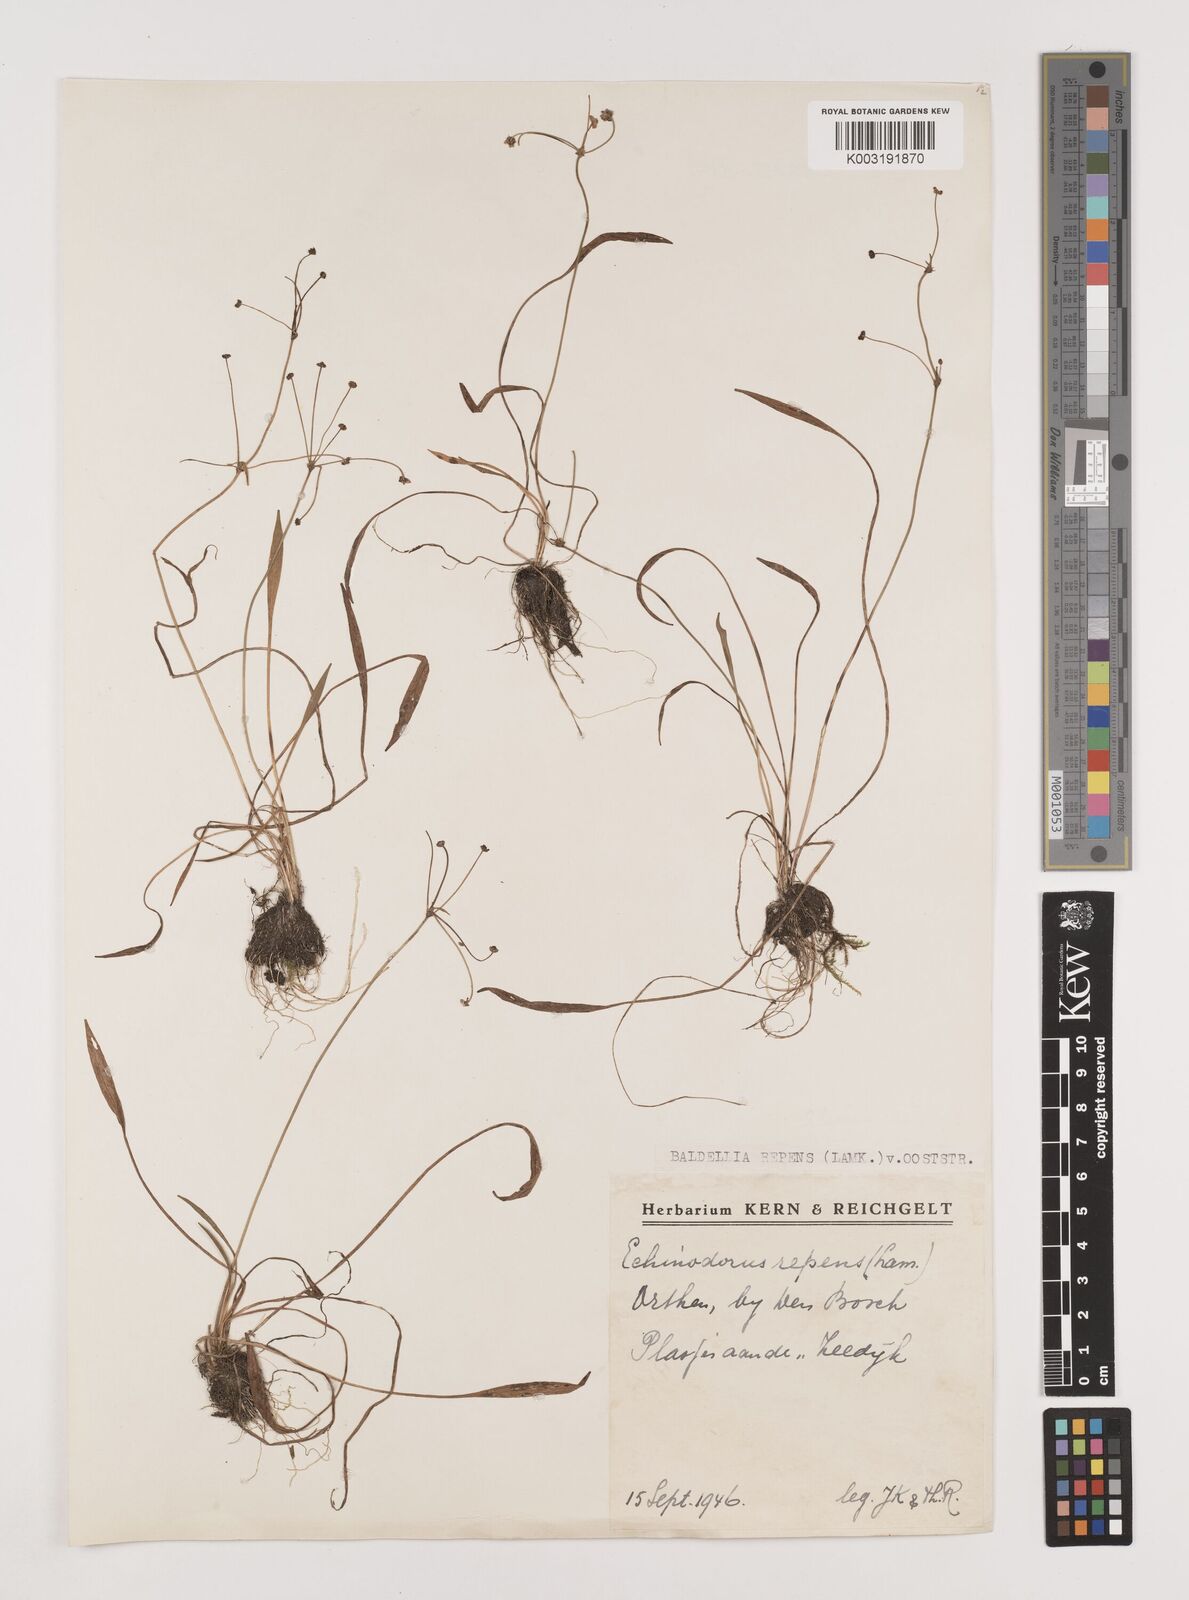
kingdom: Plantae
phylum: Tracheophyta
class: Liliopsida
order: Alismatales
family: Alismataceae
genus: Baldellia
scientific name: Baldellia repens
